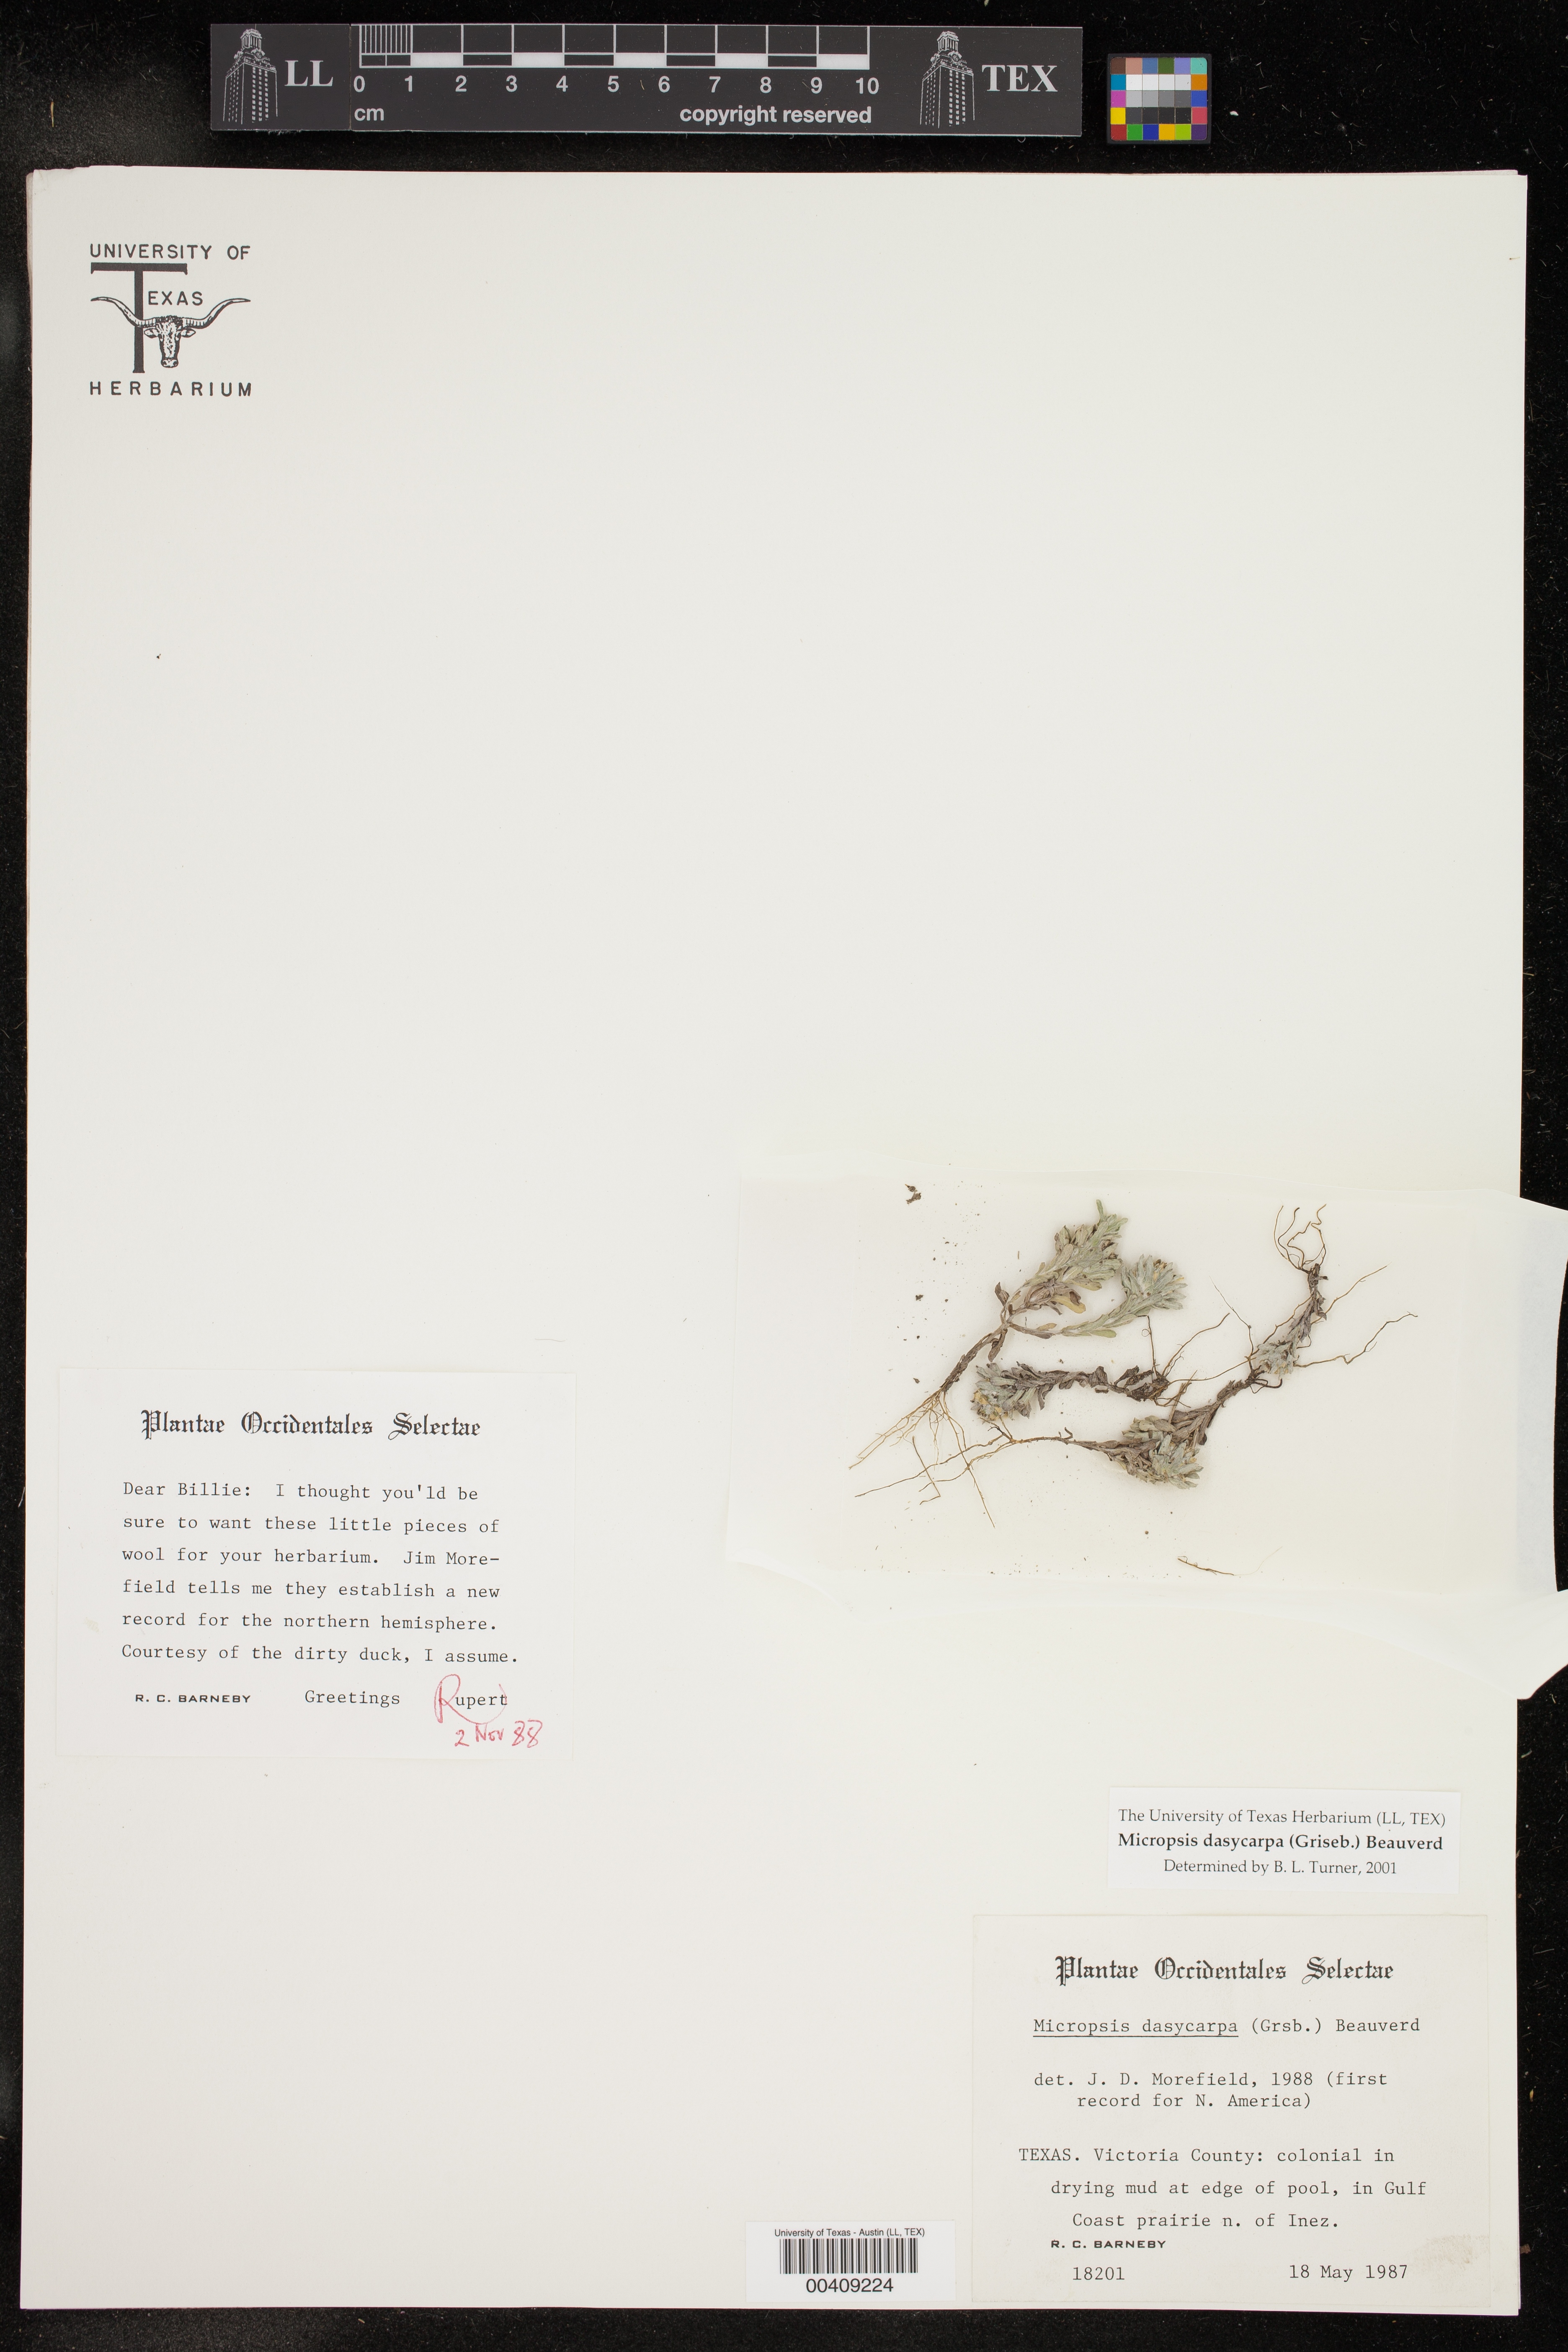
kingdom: Plantae
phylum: Tracheophyta
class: Magnoliopsida
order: Asterales
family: Asteraceae
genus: Micropsis
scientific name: Micropsis dasycarpa
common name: Bighead straitjackets
